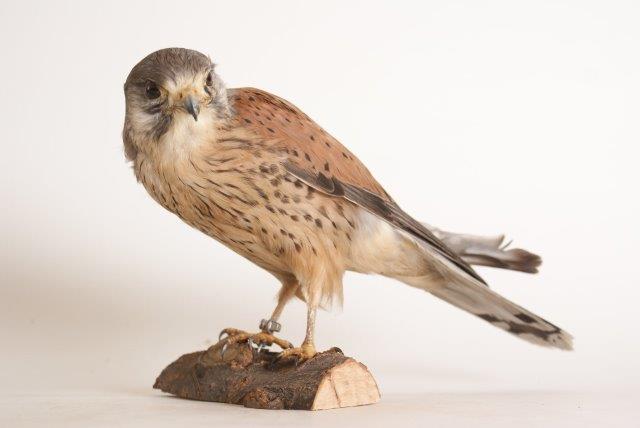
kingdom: Animalia
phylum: Chordata
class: Aves
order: Falconiformes
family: Falconidae
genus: Falco
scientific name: Falco tinnunculus
